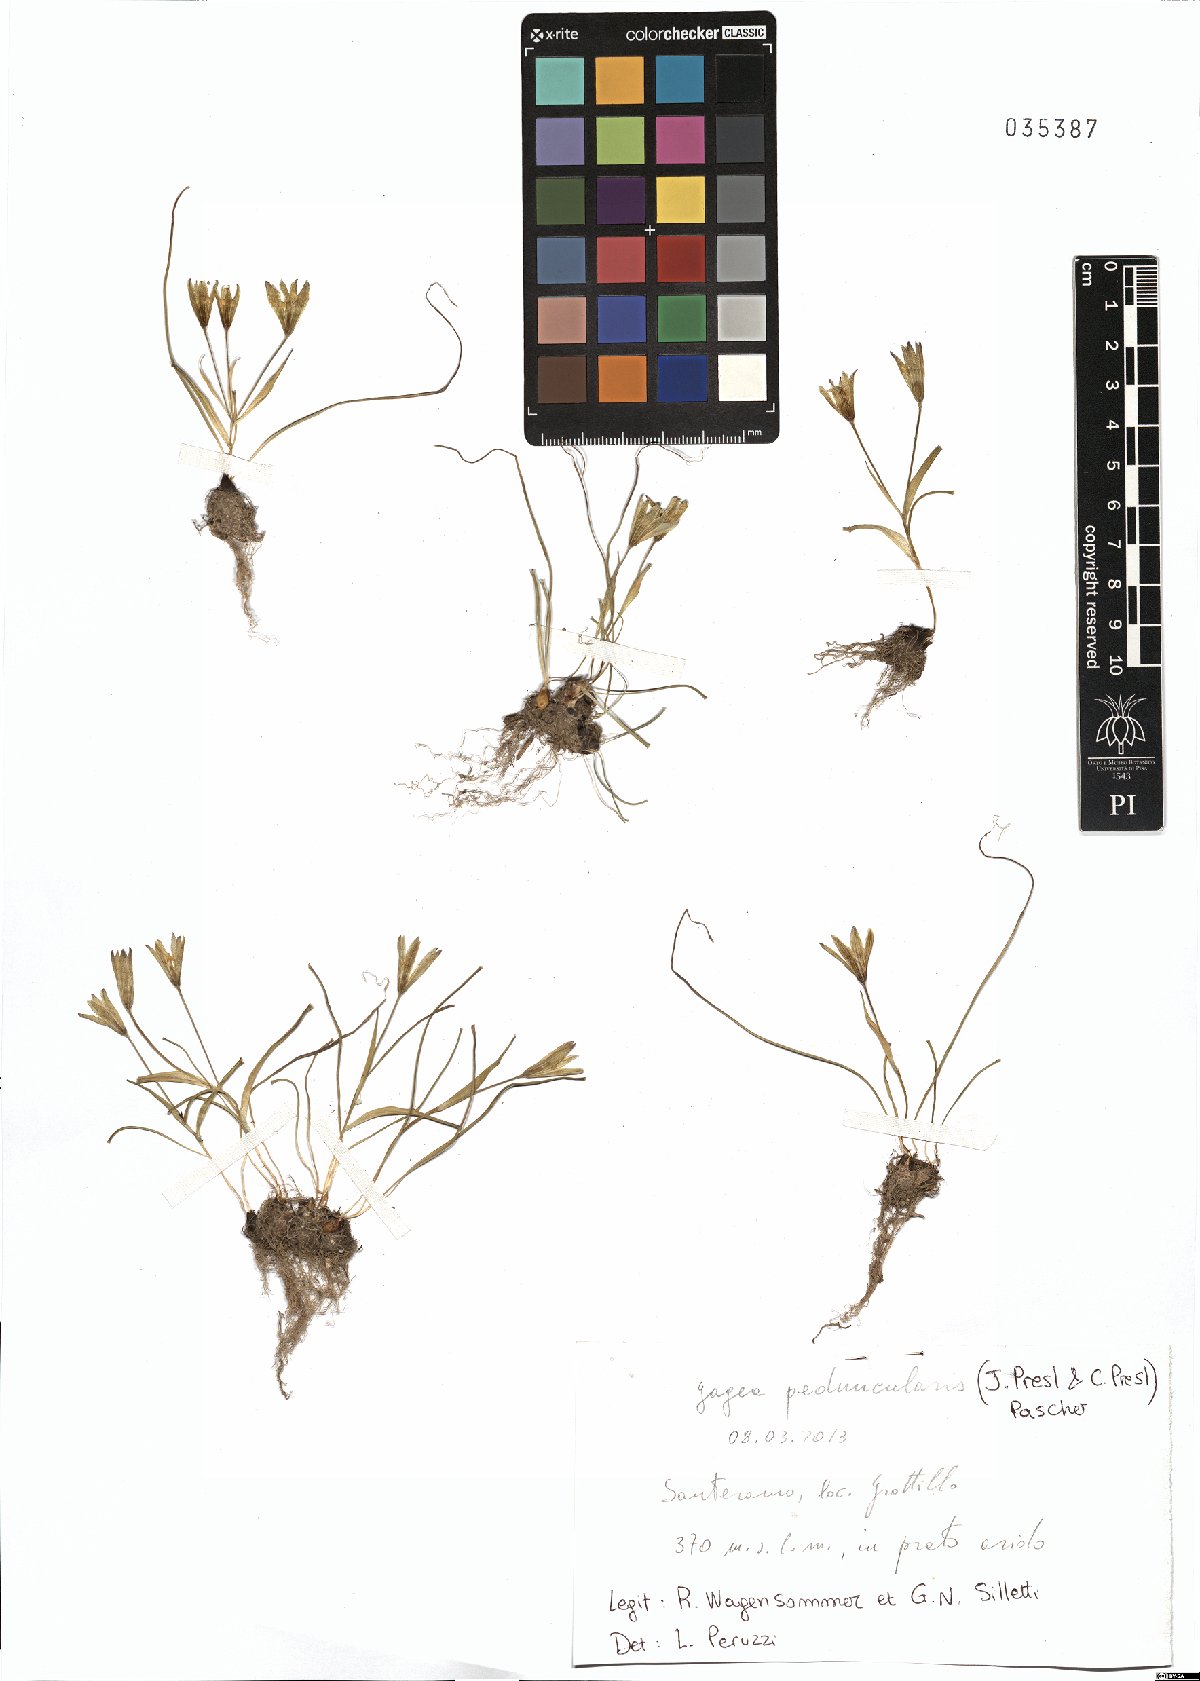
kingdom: Plantae
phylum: Tracheophyta
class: Liliopsida
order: Liliales
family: Liliaceae
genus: Gagea
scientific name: Gagea peduncularis
